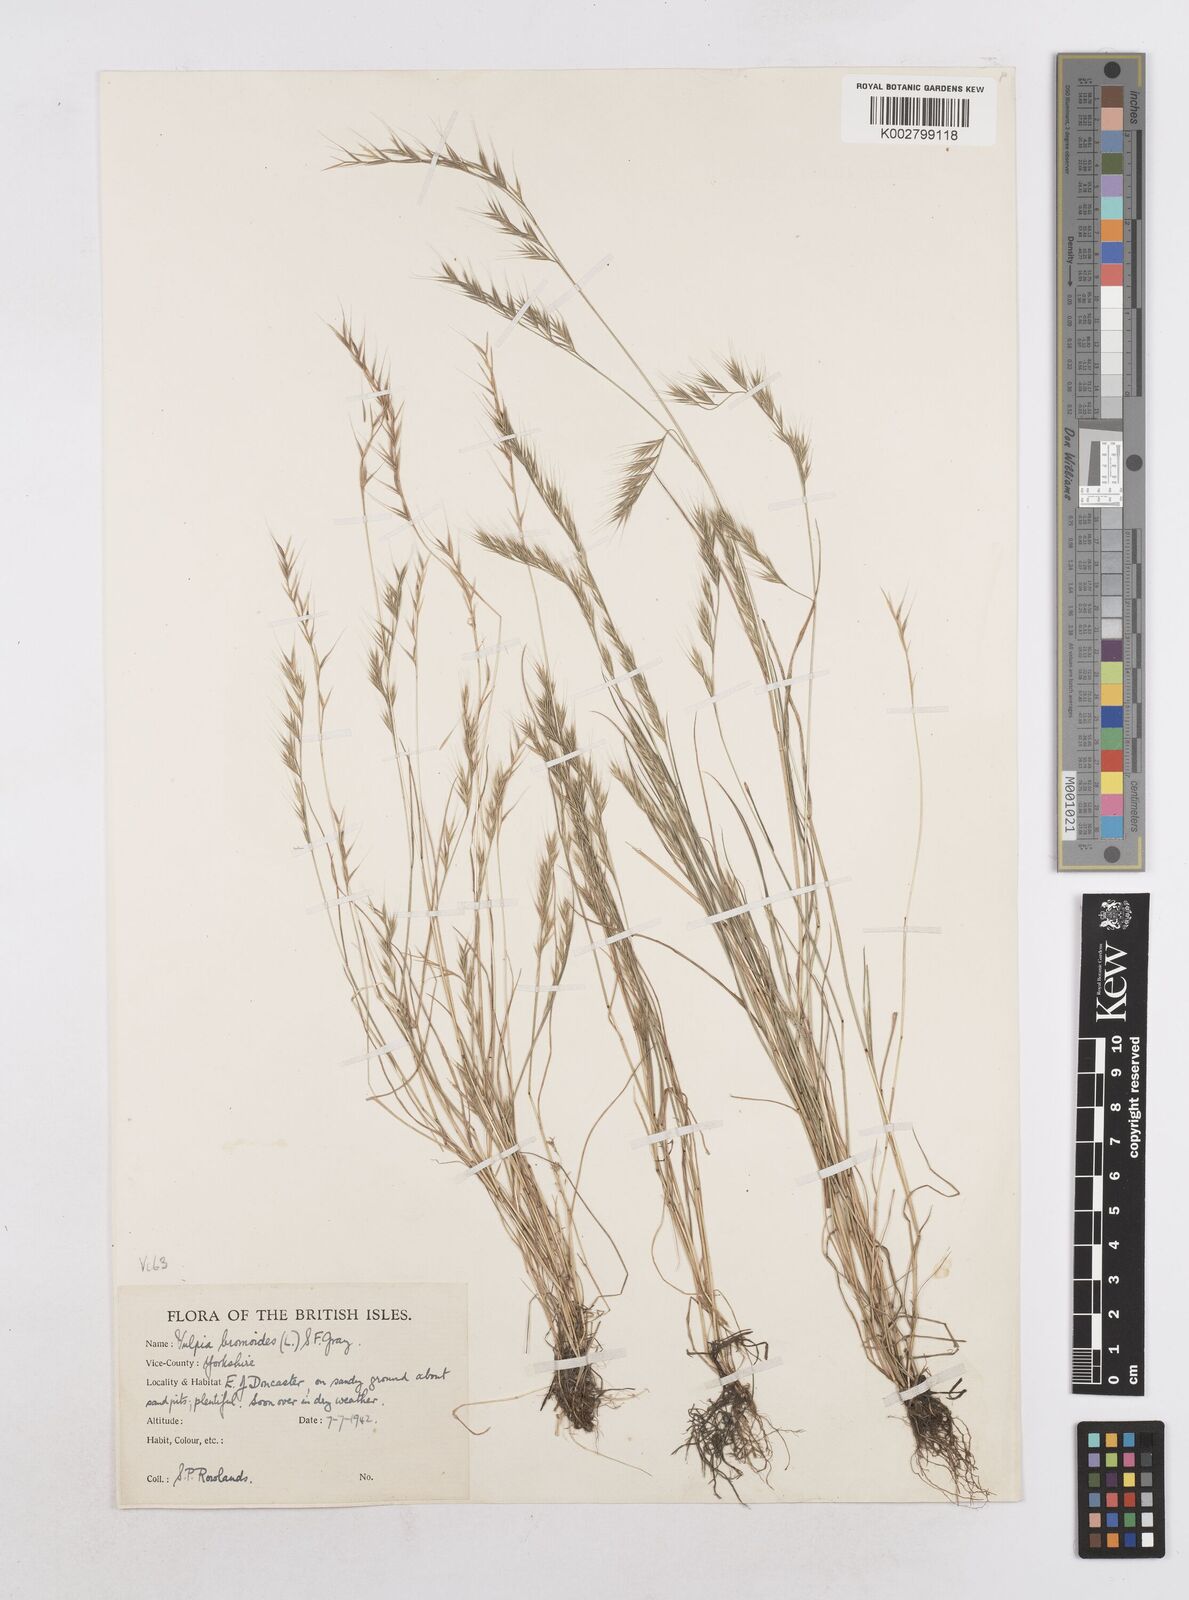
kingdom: Plantae
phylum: Tracheophyta
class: Liliopsida
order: Poales
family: Poaceae
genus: Festuca
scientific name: Festuca bromoides
